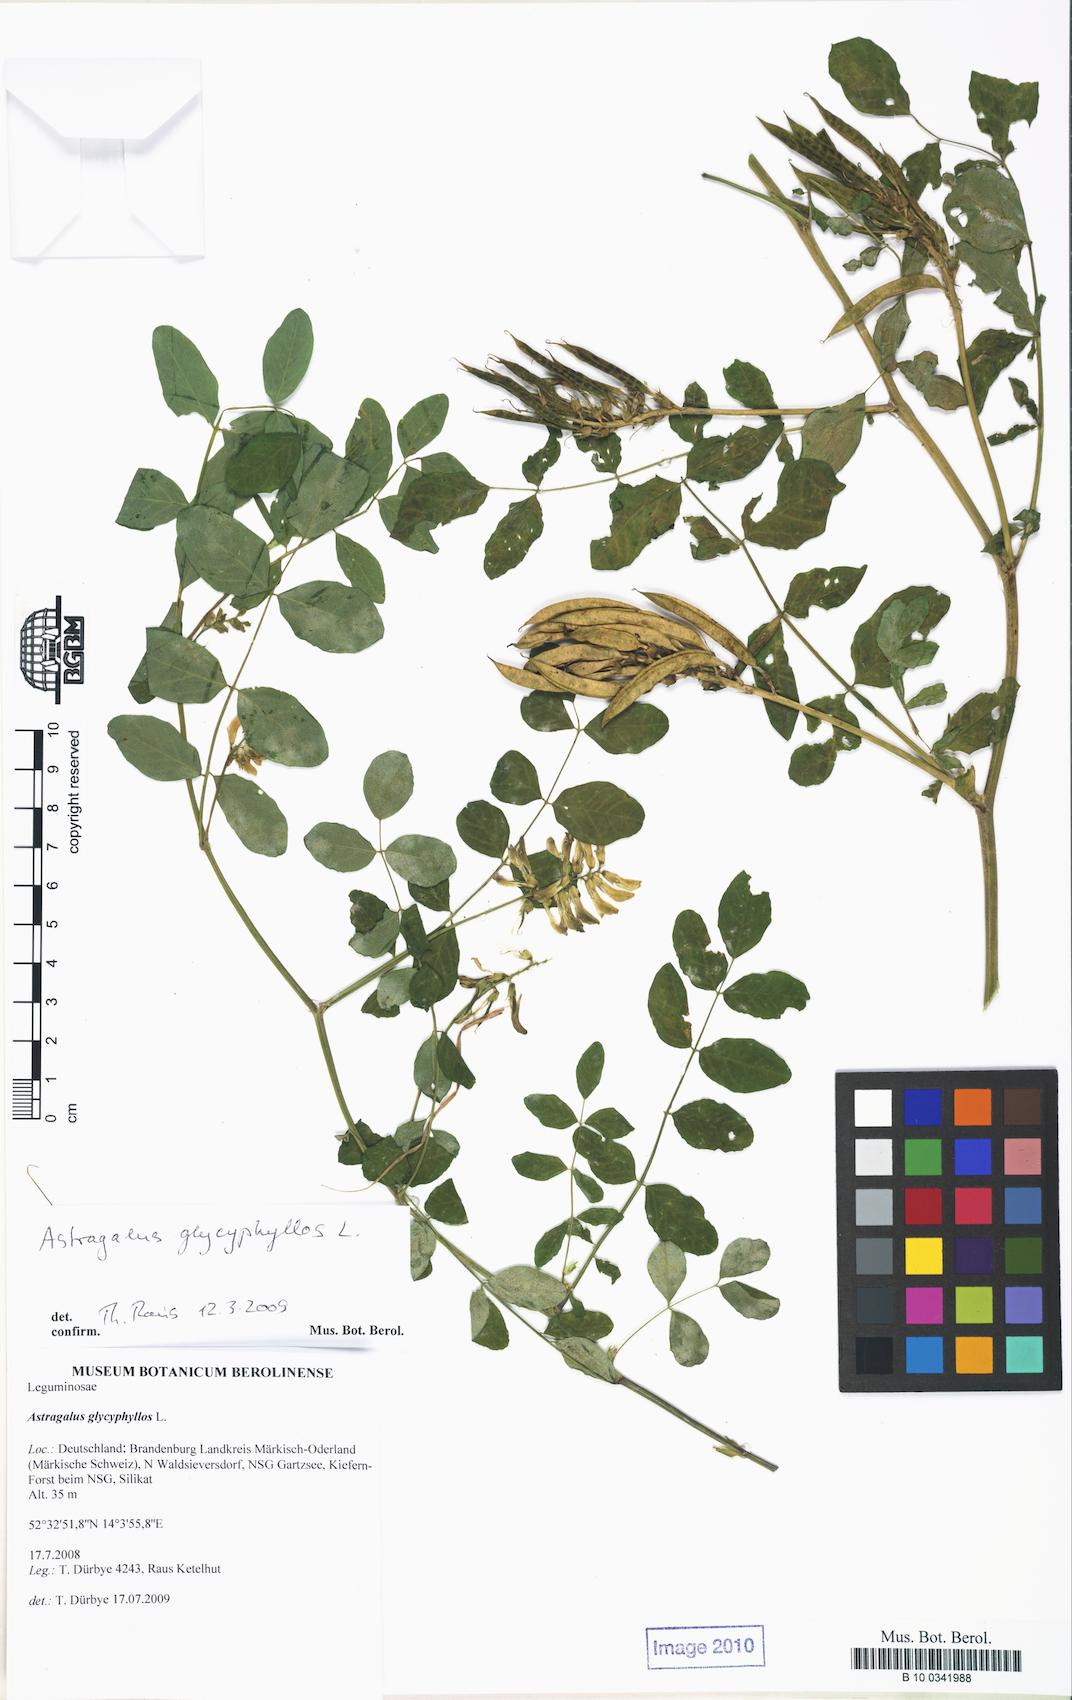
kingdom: Plantae
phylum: Tracheophyta
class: Magnoliopsida
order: Fabales
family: Fabaceae
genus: Astragalus
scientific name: Astragalus glycyphyllos
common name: Wild liquorice
